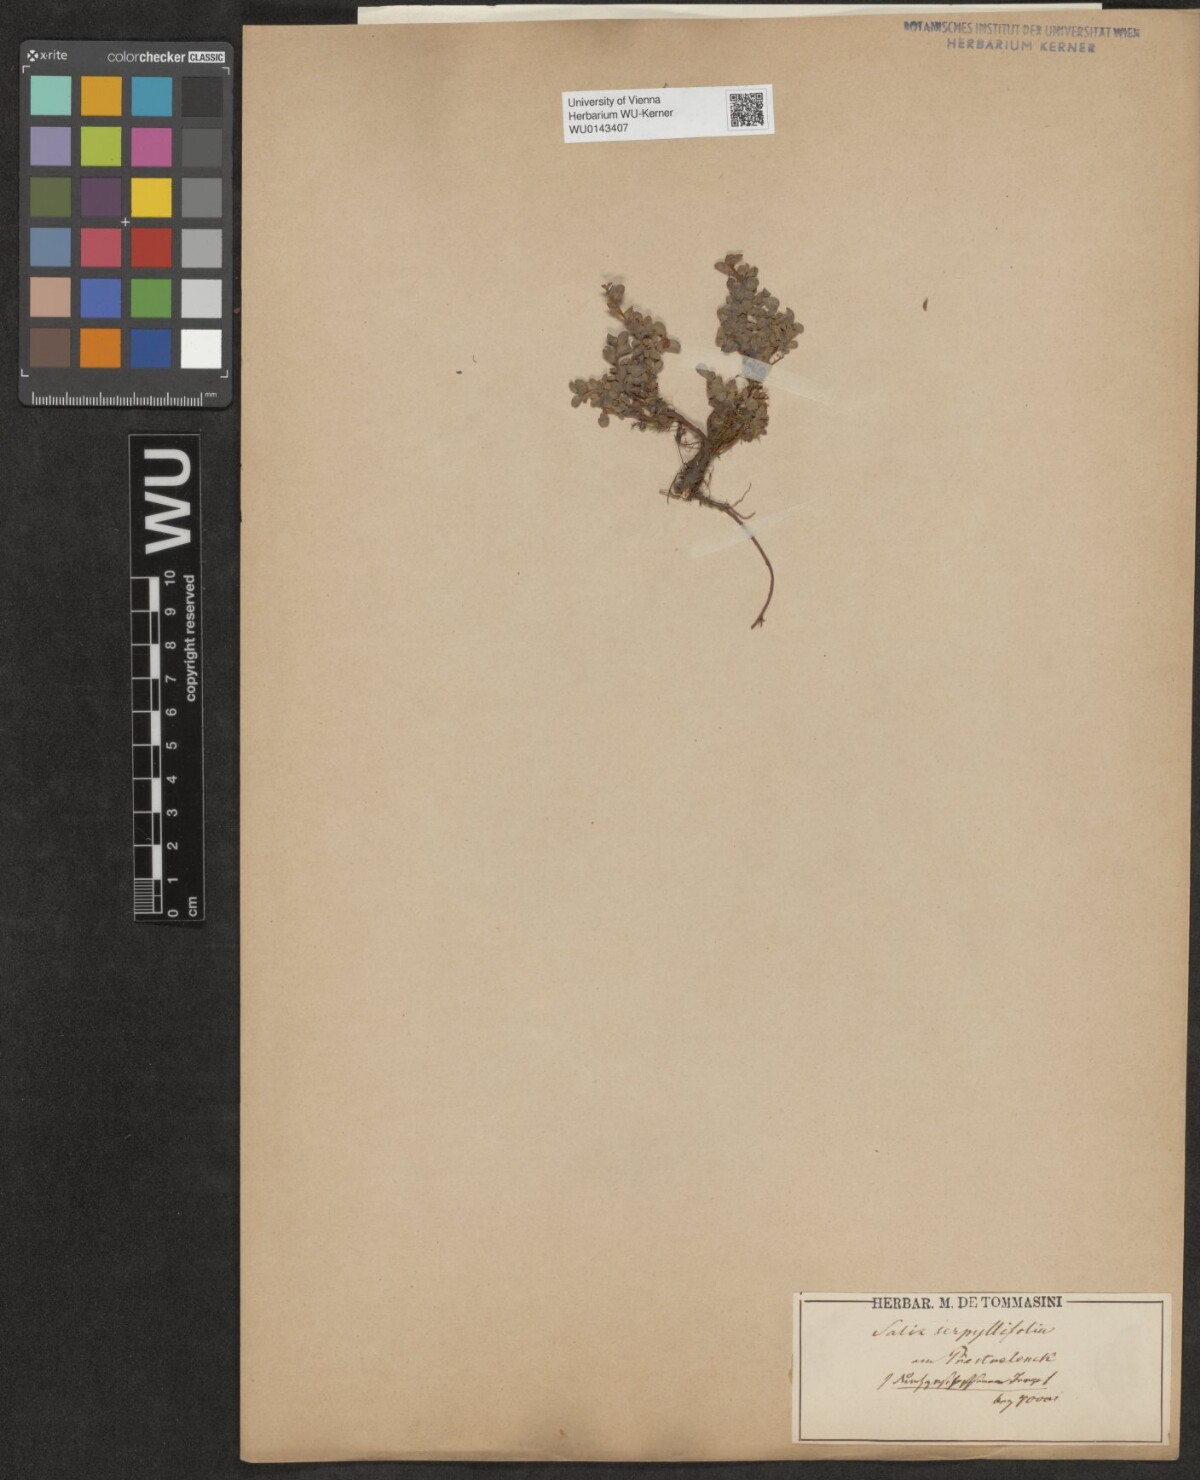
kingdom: Plantae
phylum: Tracheophyta
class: Magnoliopsida
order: Malpighiales
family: Salicaceae
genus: Salix
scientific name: Salix serpillifolia
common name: Thyme-leaf willow
